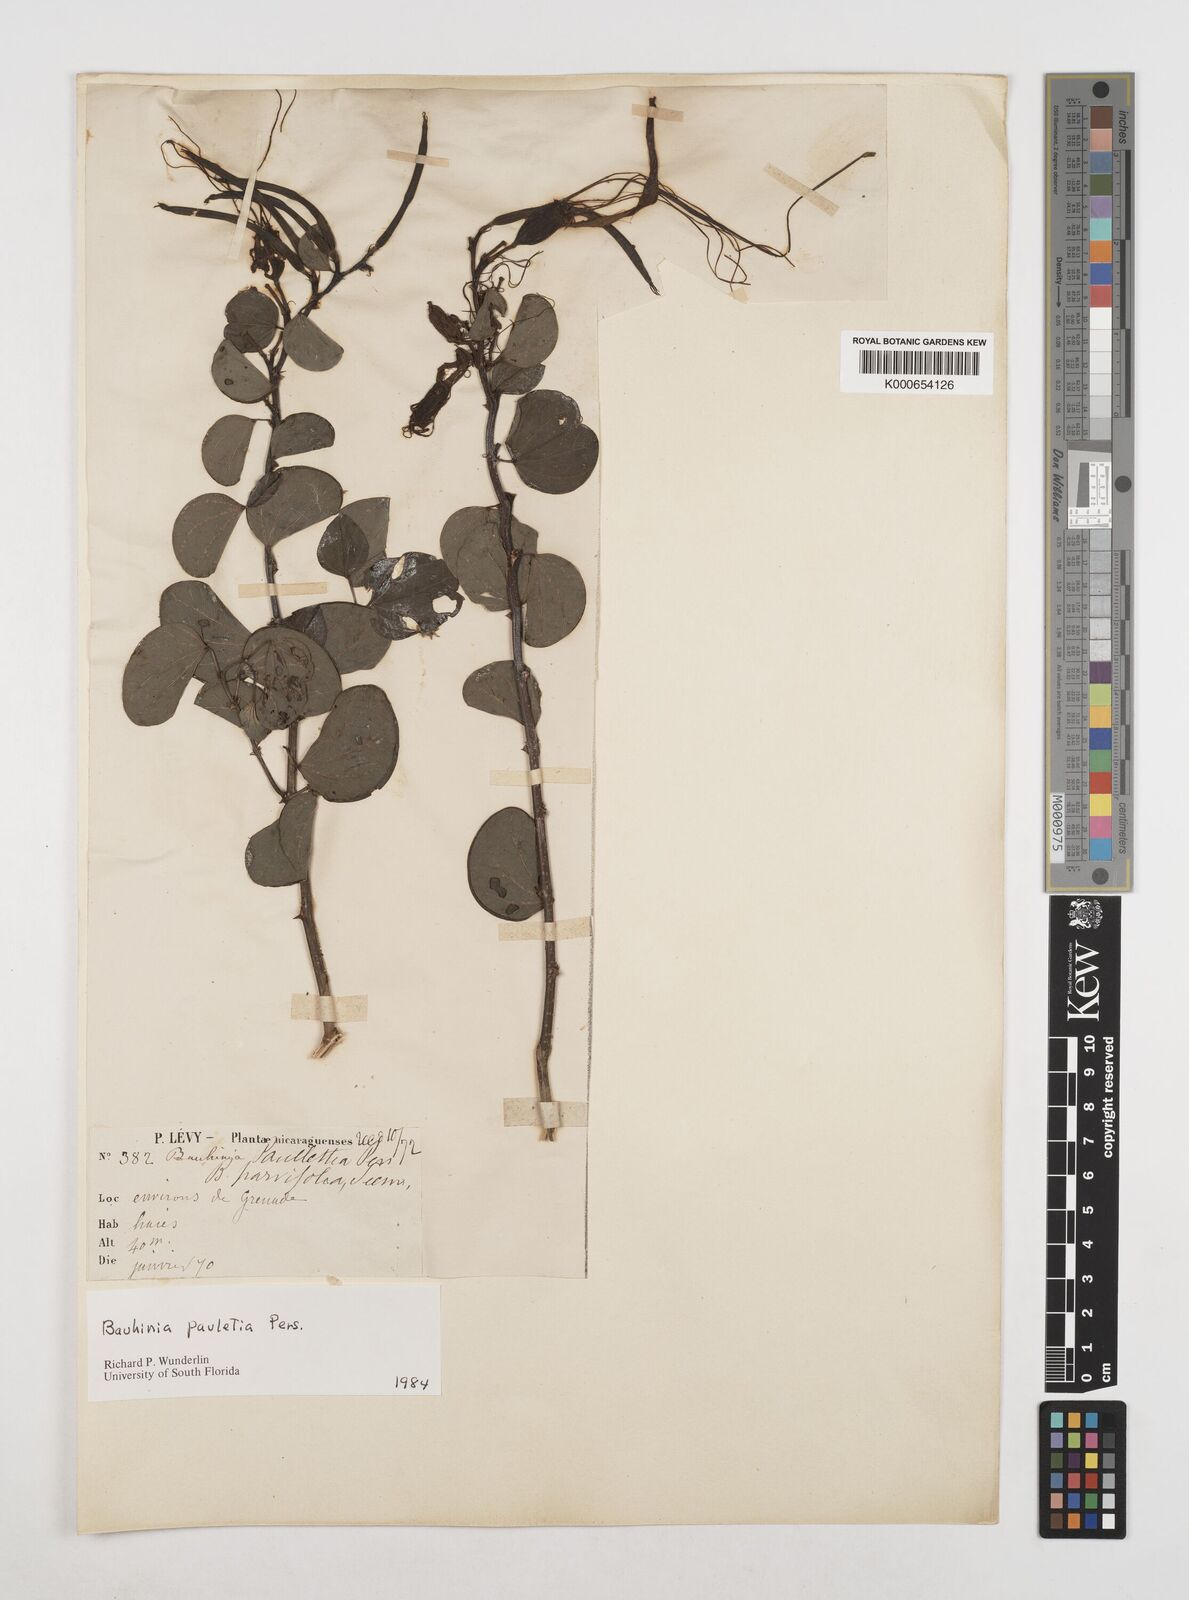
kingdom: Plantae
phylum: Tracheophyta
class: Magnoliopsida
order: Fabales
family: Fabaceae
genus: Bauhinia
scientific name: Bauhinia pauletia
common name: Railway-fence bauhinia
